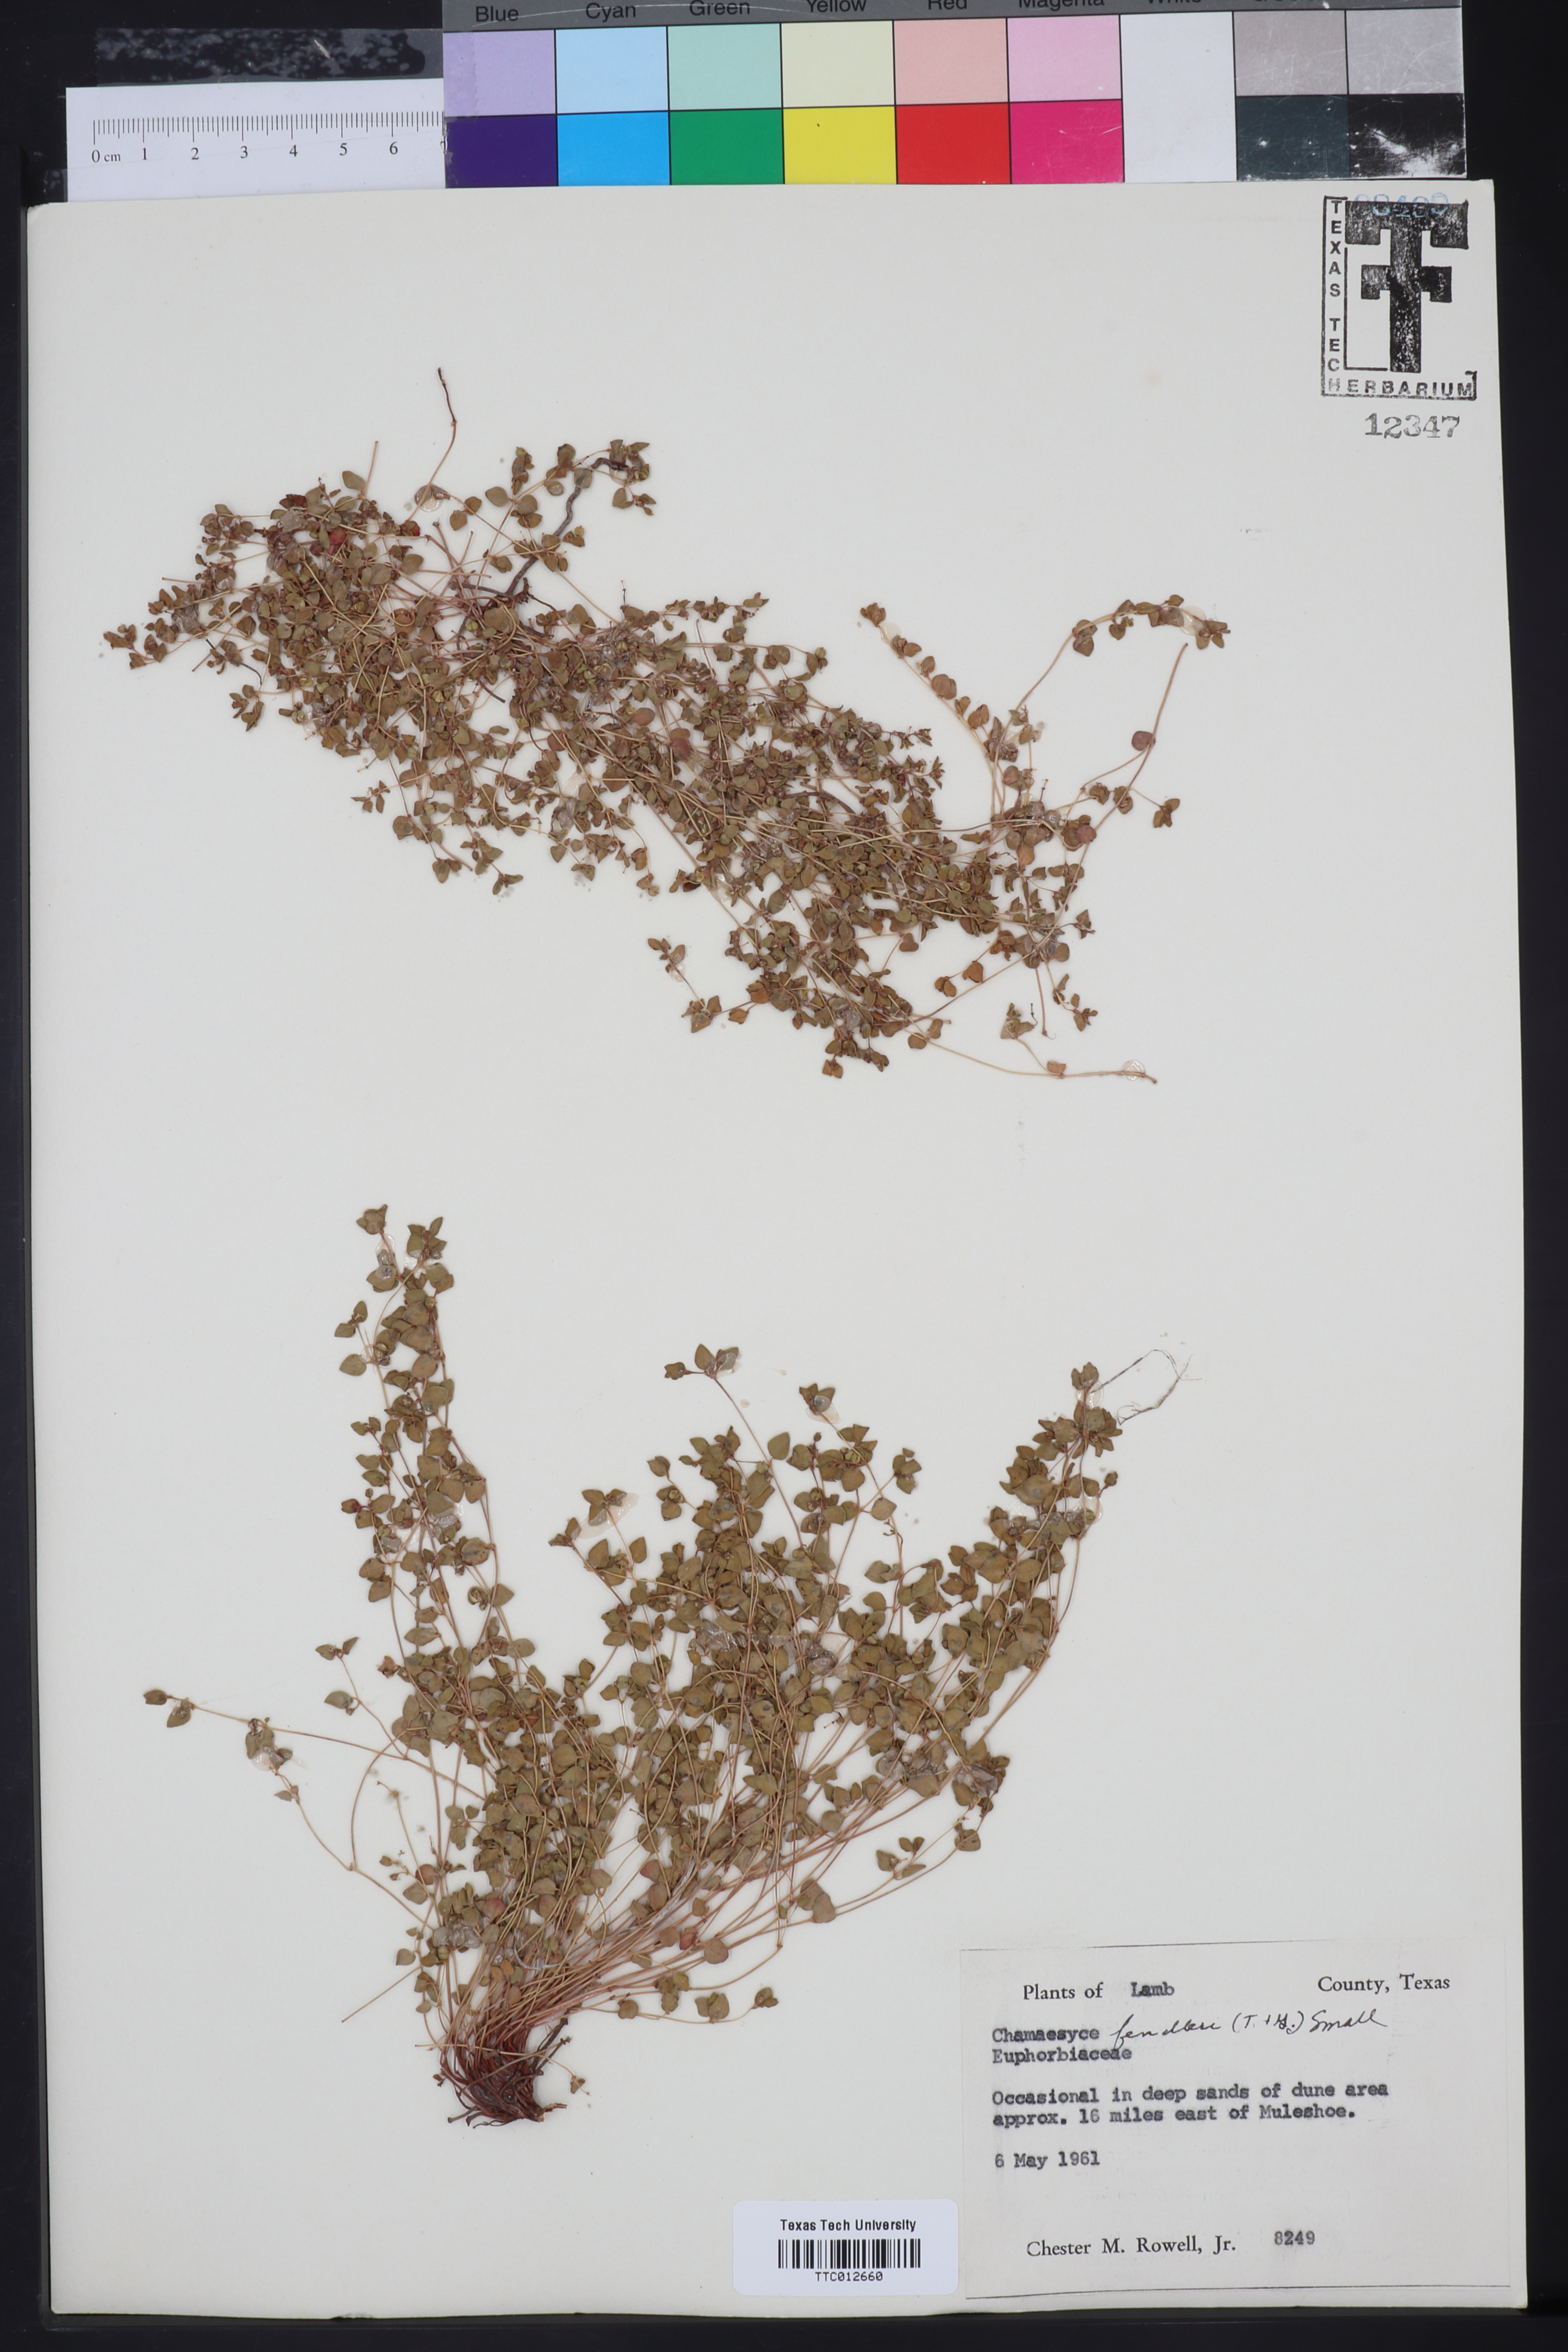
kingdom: Plantae
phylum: Tracheophyta
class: Magnoliopsida
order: Malpighiales
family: Euphorbiaceae
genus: Euphorbia
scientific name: Euphorbia fendleri
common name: Fendler's euphorbia
